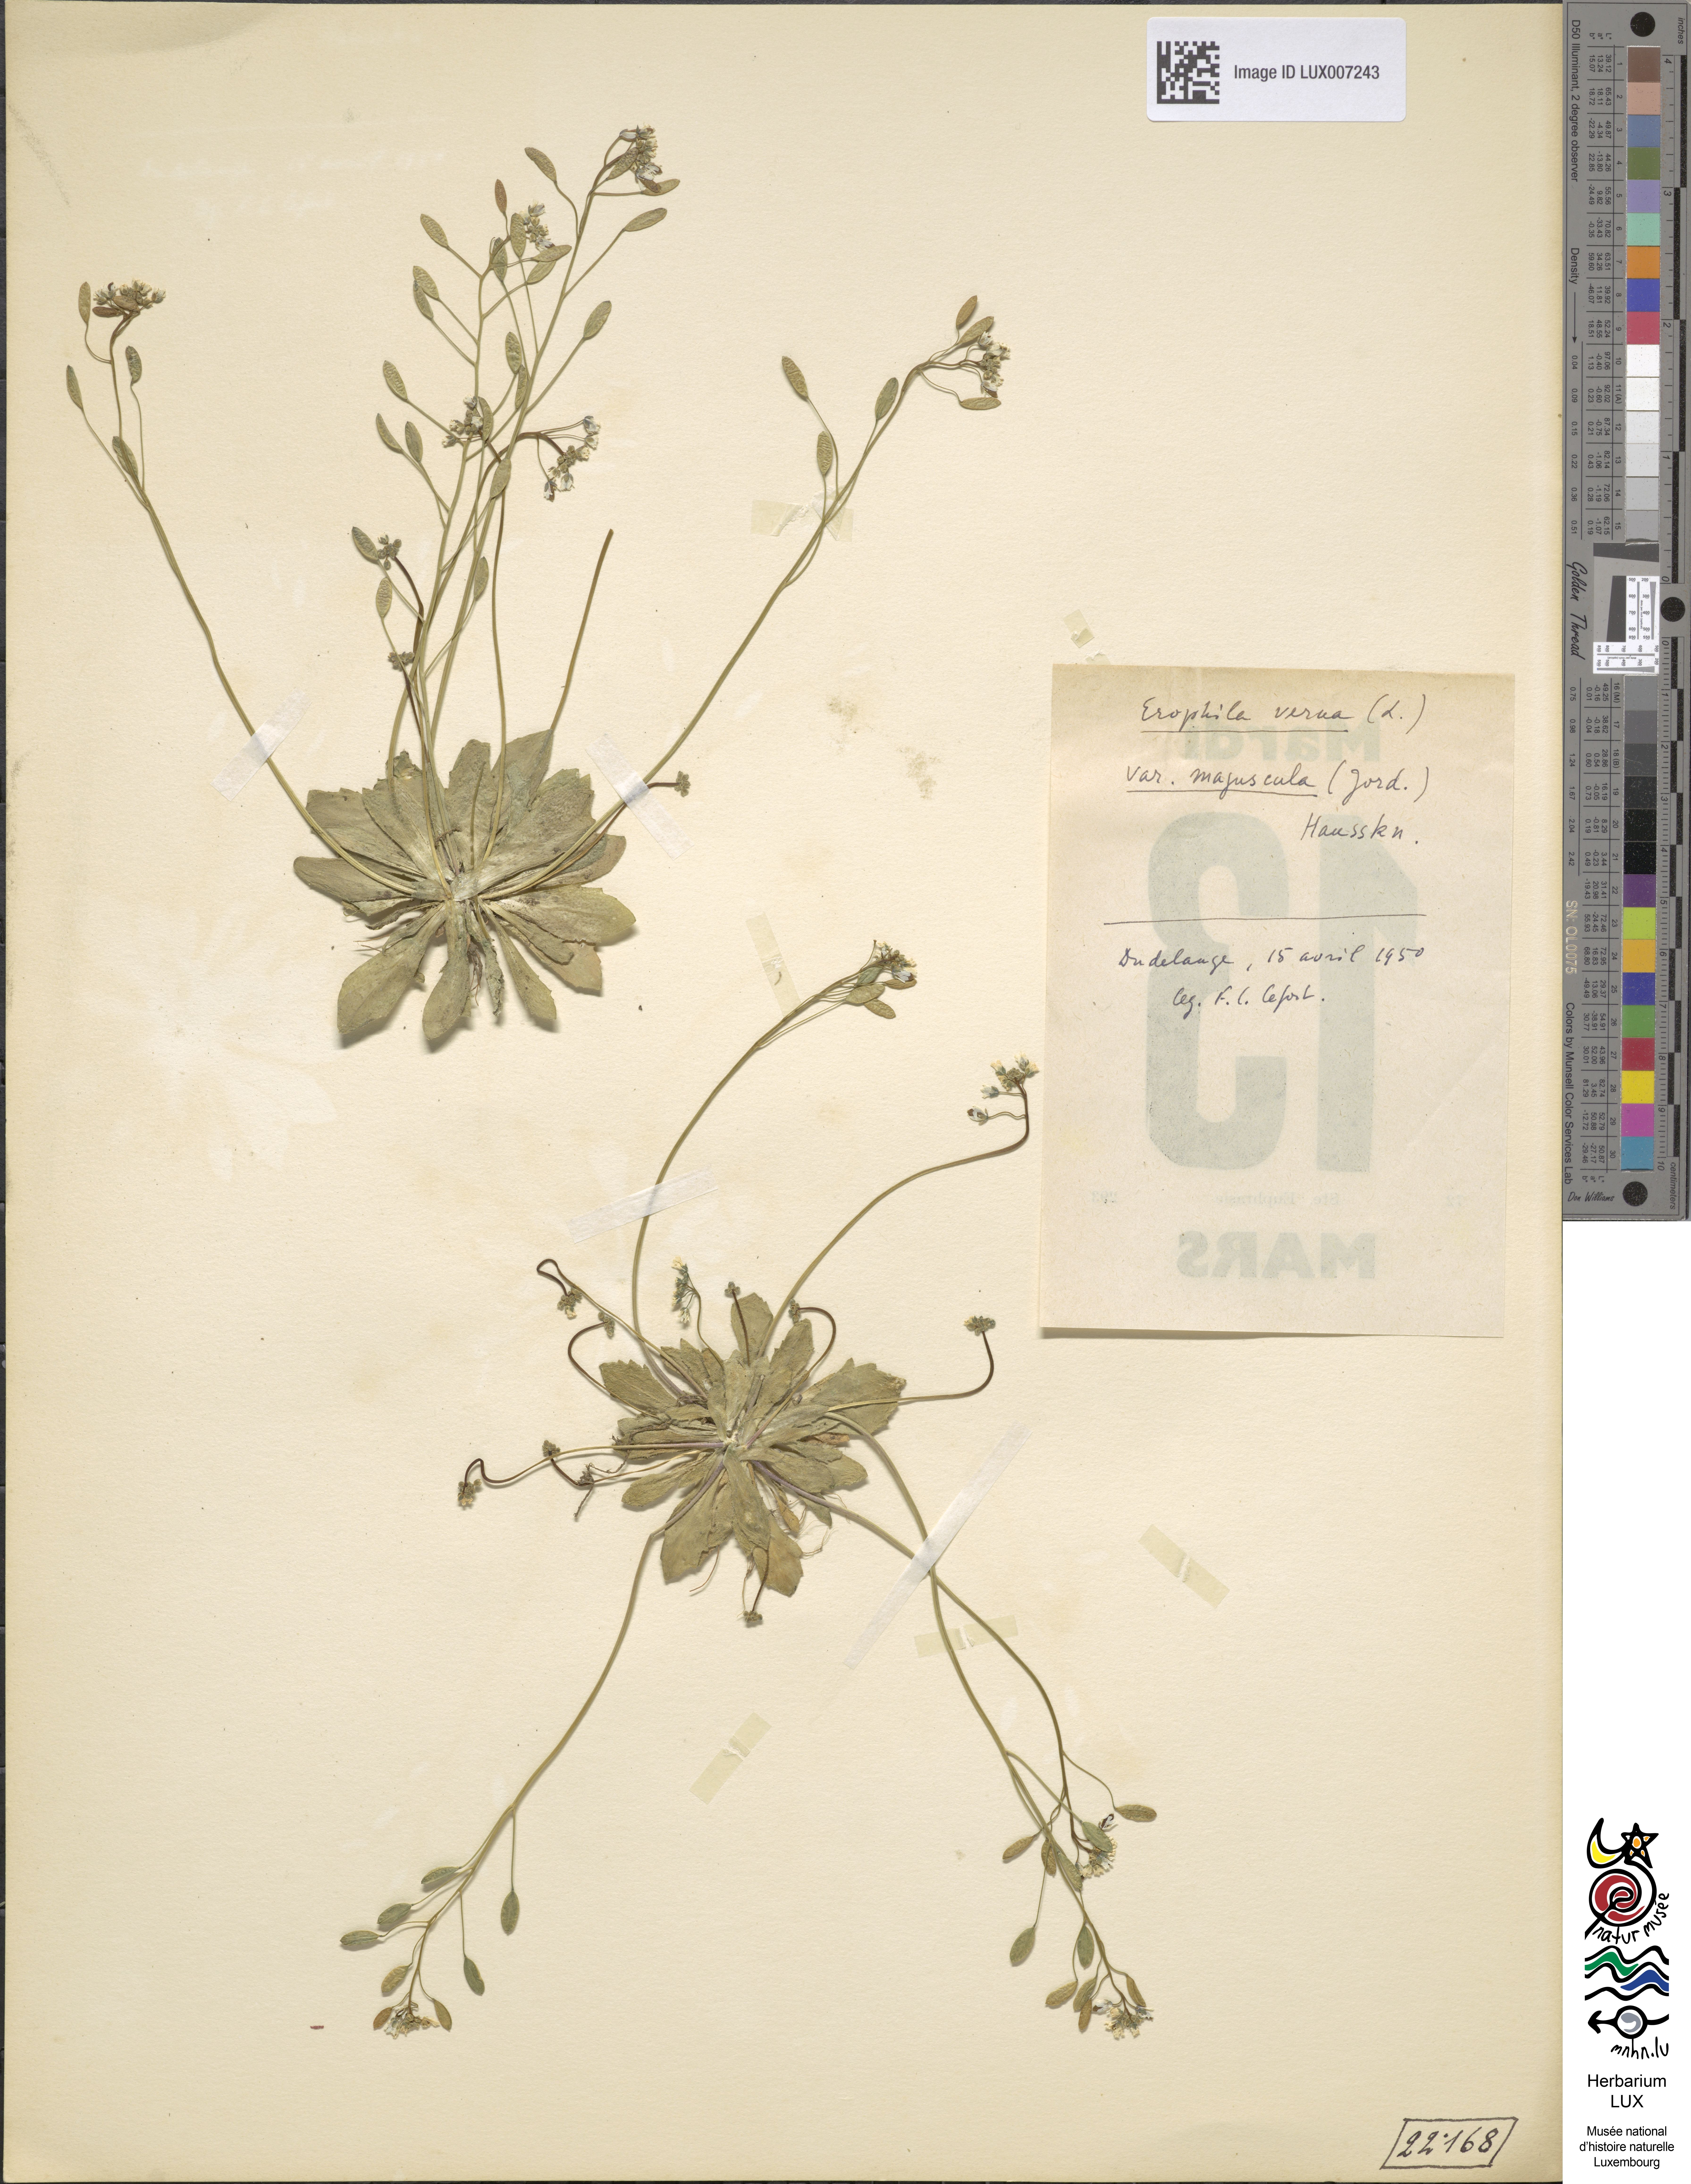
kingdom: Plantae
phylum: Tracheophyta
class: Magnoliopsida
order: Brassicales
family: Brassicaceae
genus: Draba
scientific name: Draba verna
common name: Spring draba
